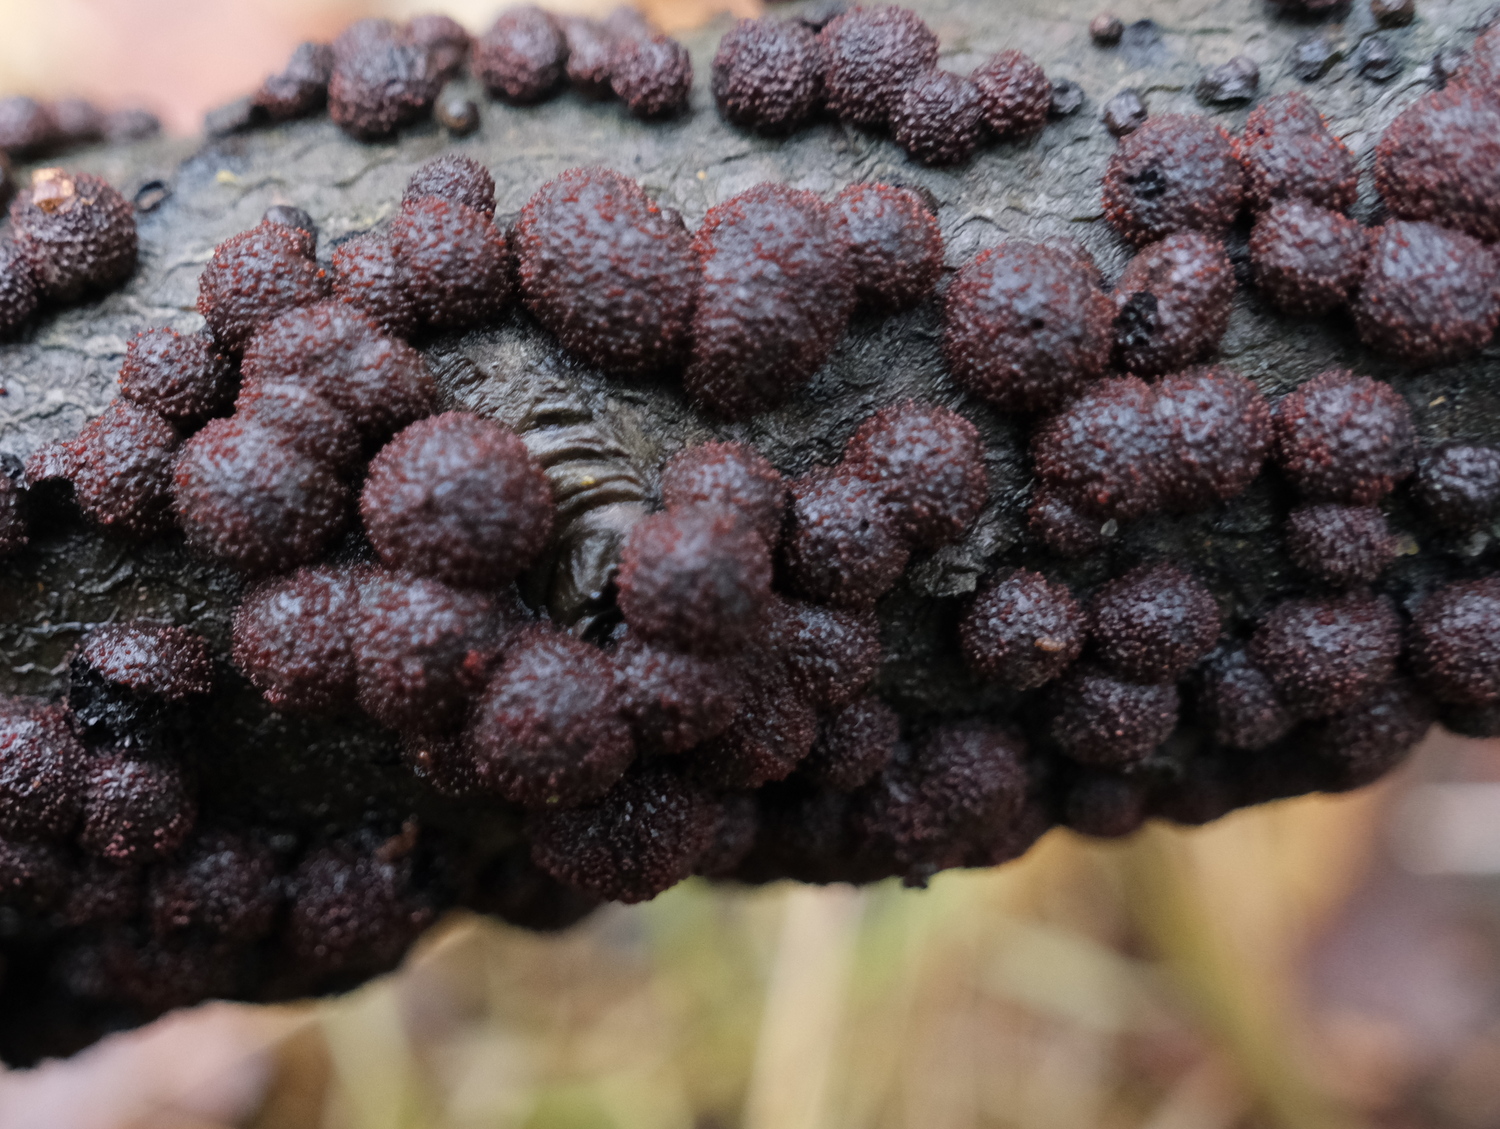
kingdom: Fungi
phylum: Ascomycota
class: Sordariomycetes
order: Hypocreales
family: Nectriaceae
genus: Cosmospora
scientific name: Cosmospora arxii
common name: kuljordbær-cinnobersvamp
